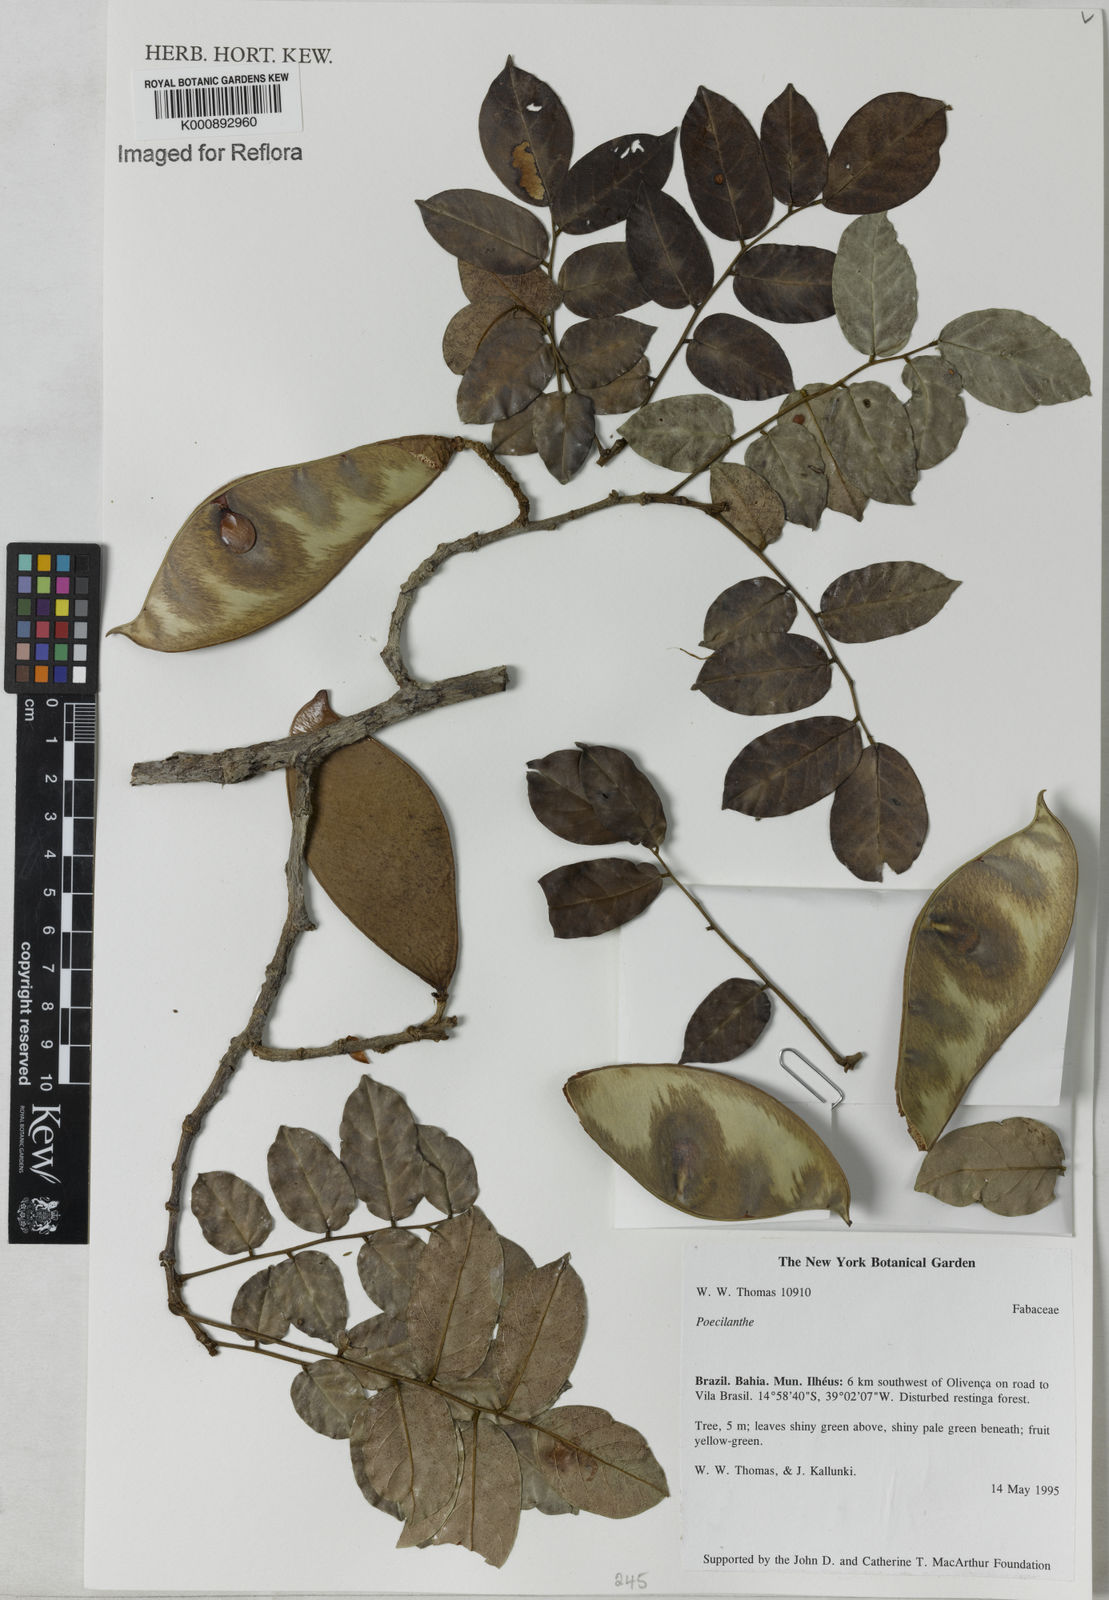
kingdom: Plantae
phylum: Tracheophyta
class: Magnoliopsida
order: Fabales
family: Fabaceae
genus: Poecilanthe
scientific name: Poecilanthe
